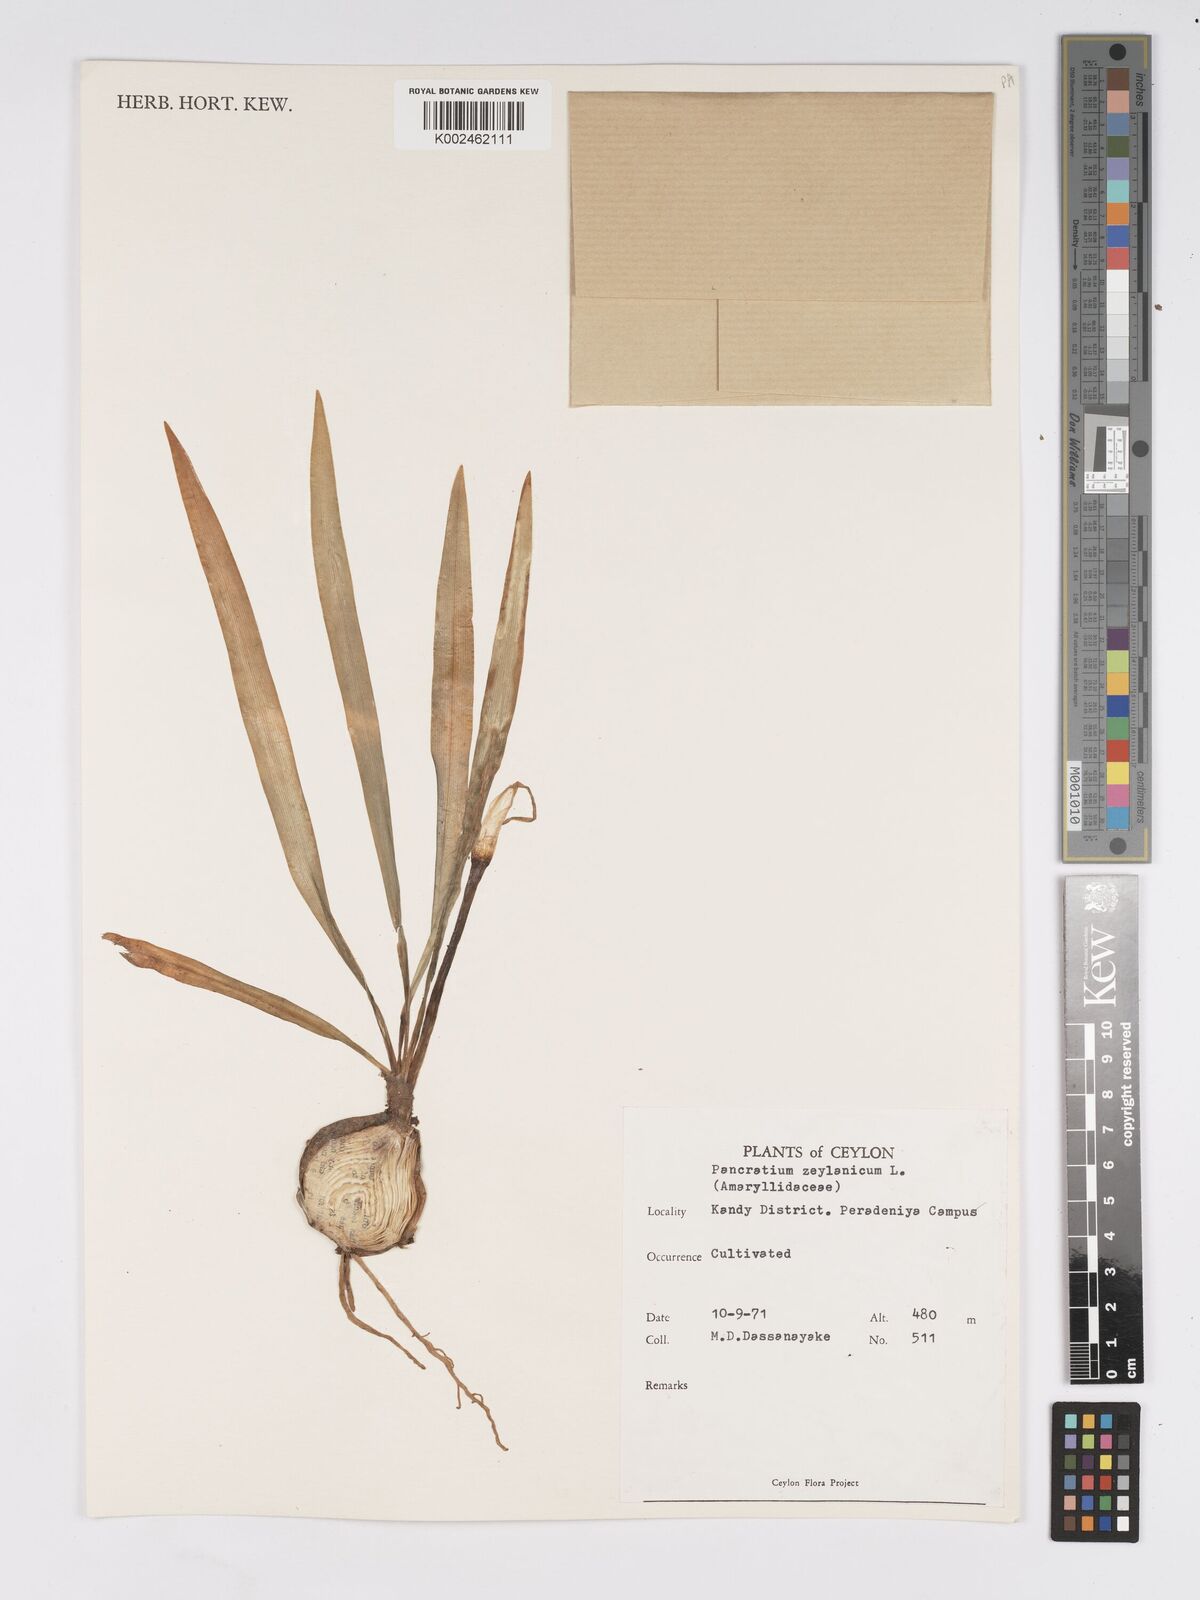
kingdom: Plantae
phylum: Tracheophyta
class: Liliopsida
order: Asparagales
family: Amaryllidaceae
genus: Pancratium
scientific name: Pancratium zeylanicum
